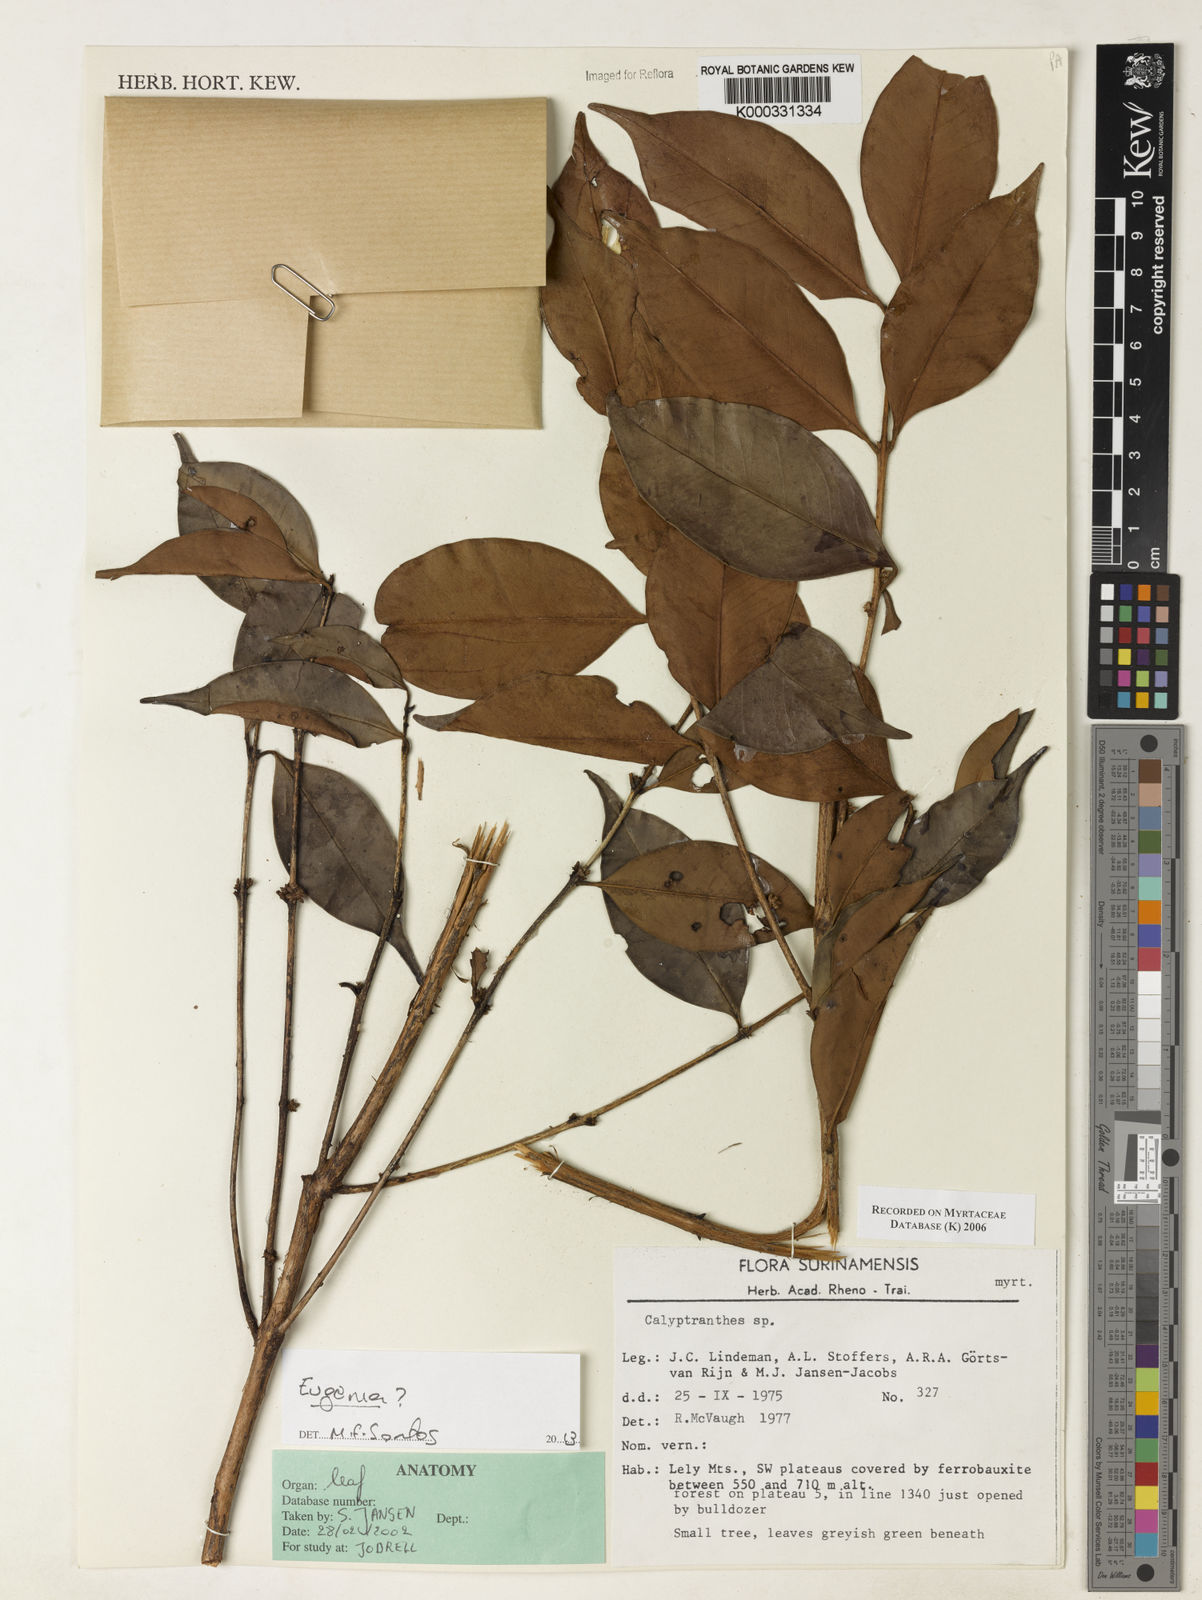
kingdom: Plantae
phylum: Tracheophyta
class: Magnoliopsida
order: Myrtales
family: Myrtaceae
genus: Calyptranthes
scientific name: Calyptranthes
